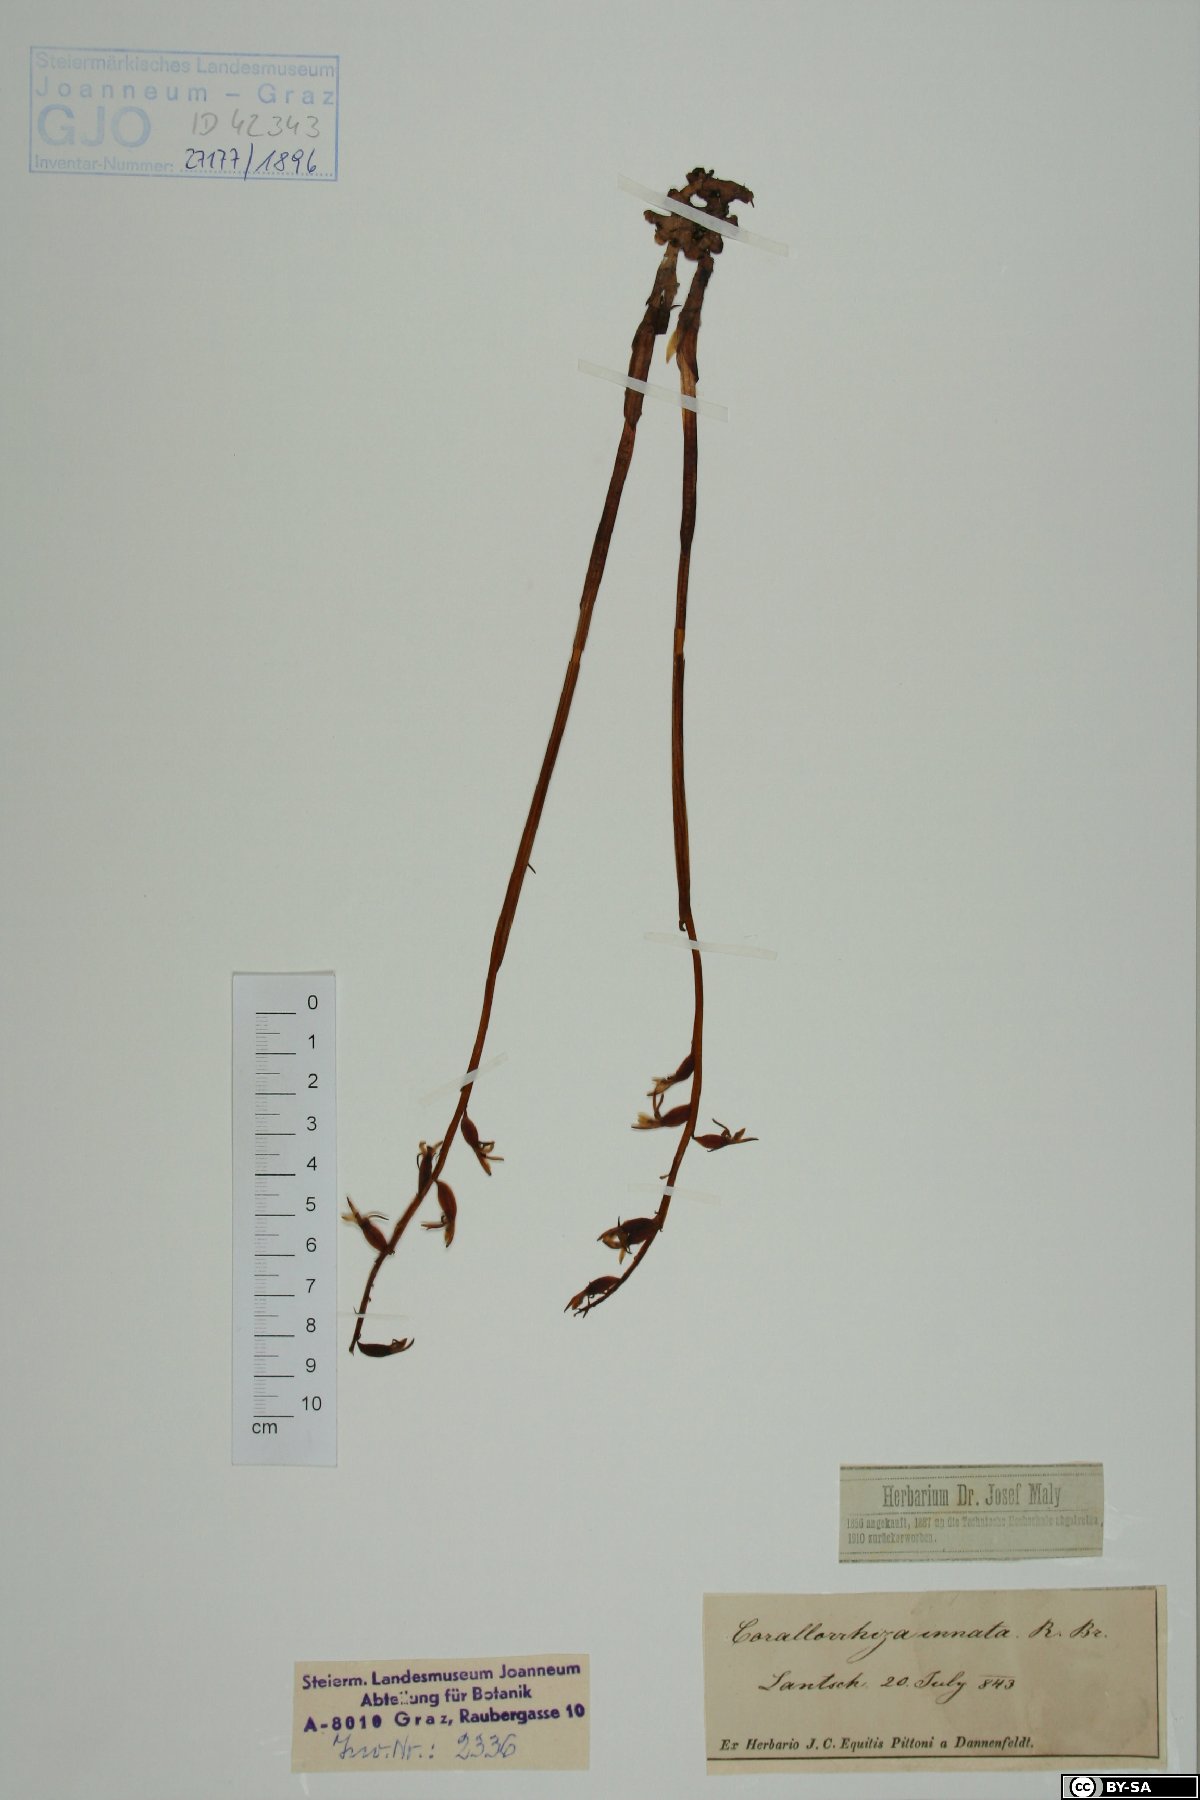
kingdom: Plantae
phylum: Tracheophyta
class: Liliopsida
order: Asparagales
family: Orchidaceae
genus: Corallorhiza
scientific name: Corallorhiza trifida
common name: Yellow coralroot
